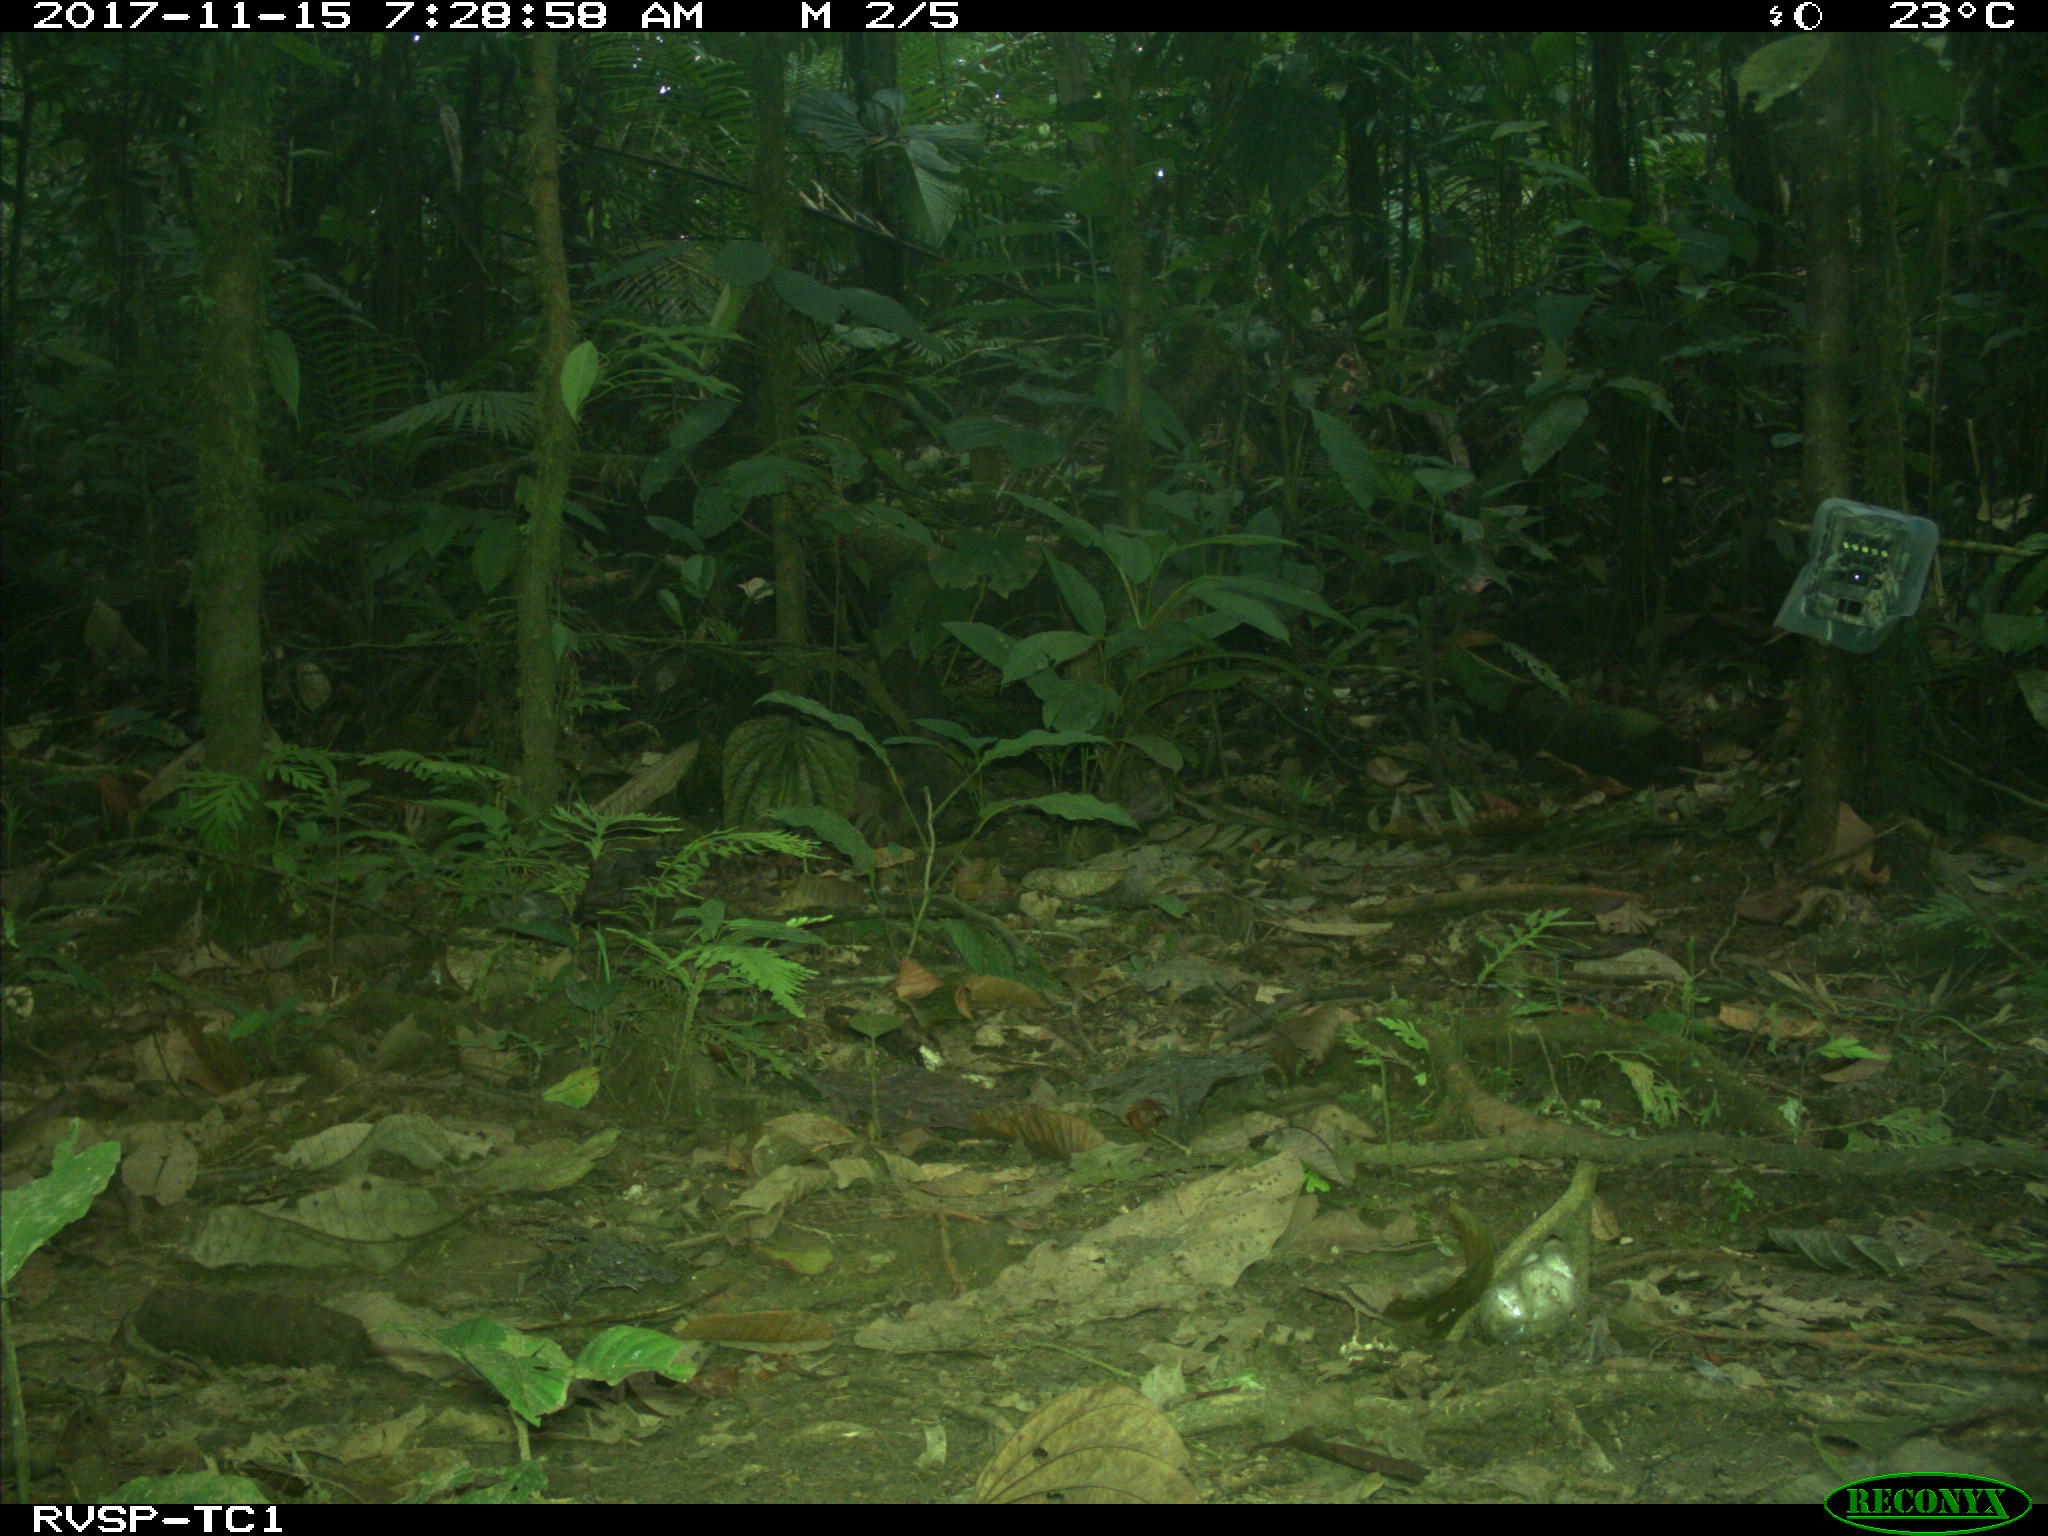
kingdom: Animalia
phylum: Chordata
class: Mammalia
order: Rodentia
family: Dasyproctidae
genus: Dasyprocta
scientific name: Dasyprocta punctata
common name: Central american agouti
